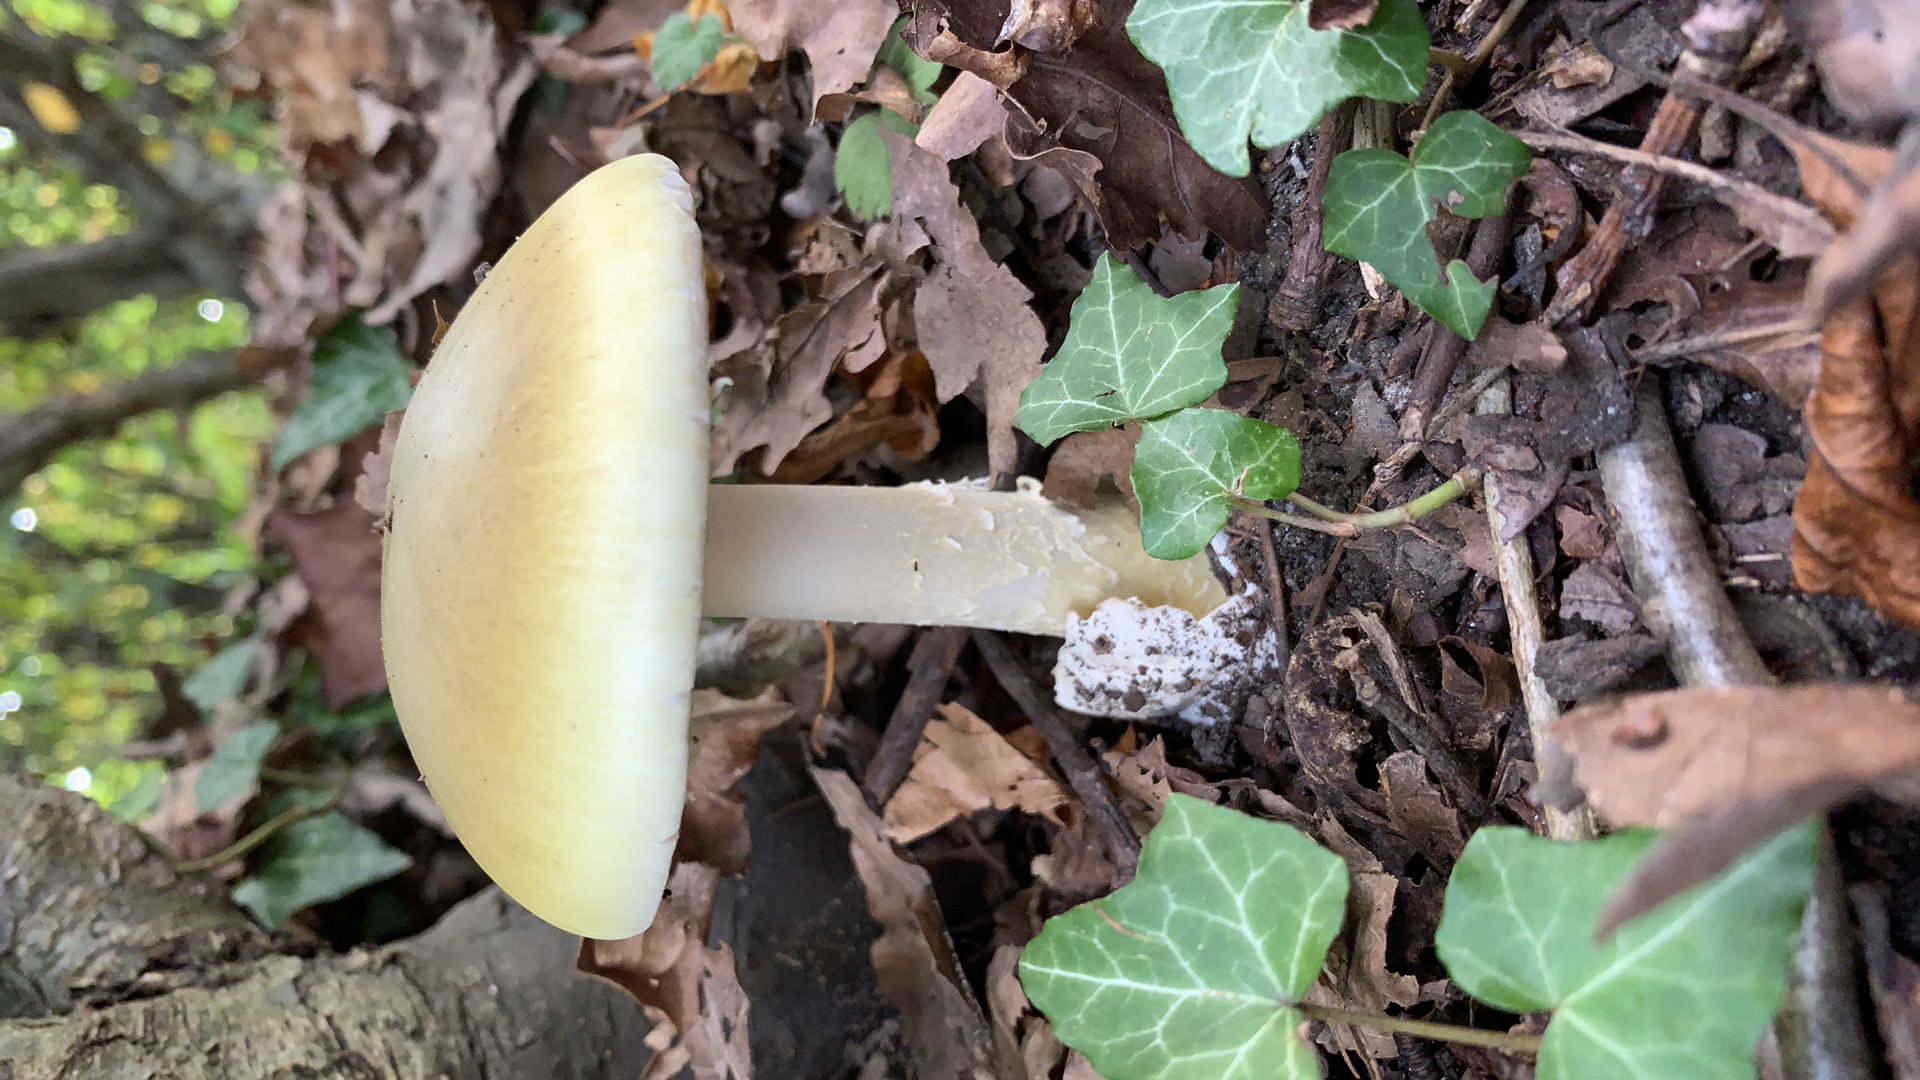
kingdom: Fungi
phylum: Basidiomycota
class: Agaricomycetes
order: Agaricales
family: Amanitaceae
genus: Amanita
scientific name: Amanita phalloides
